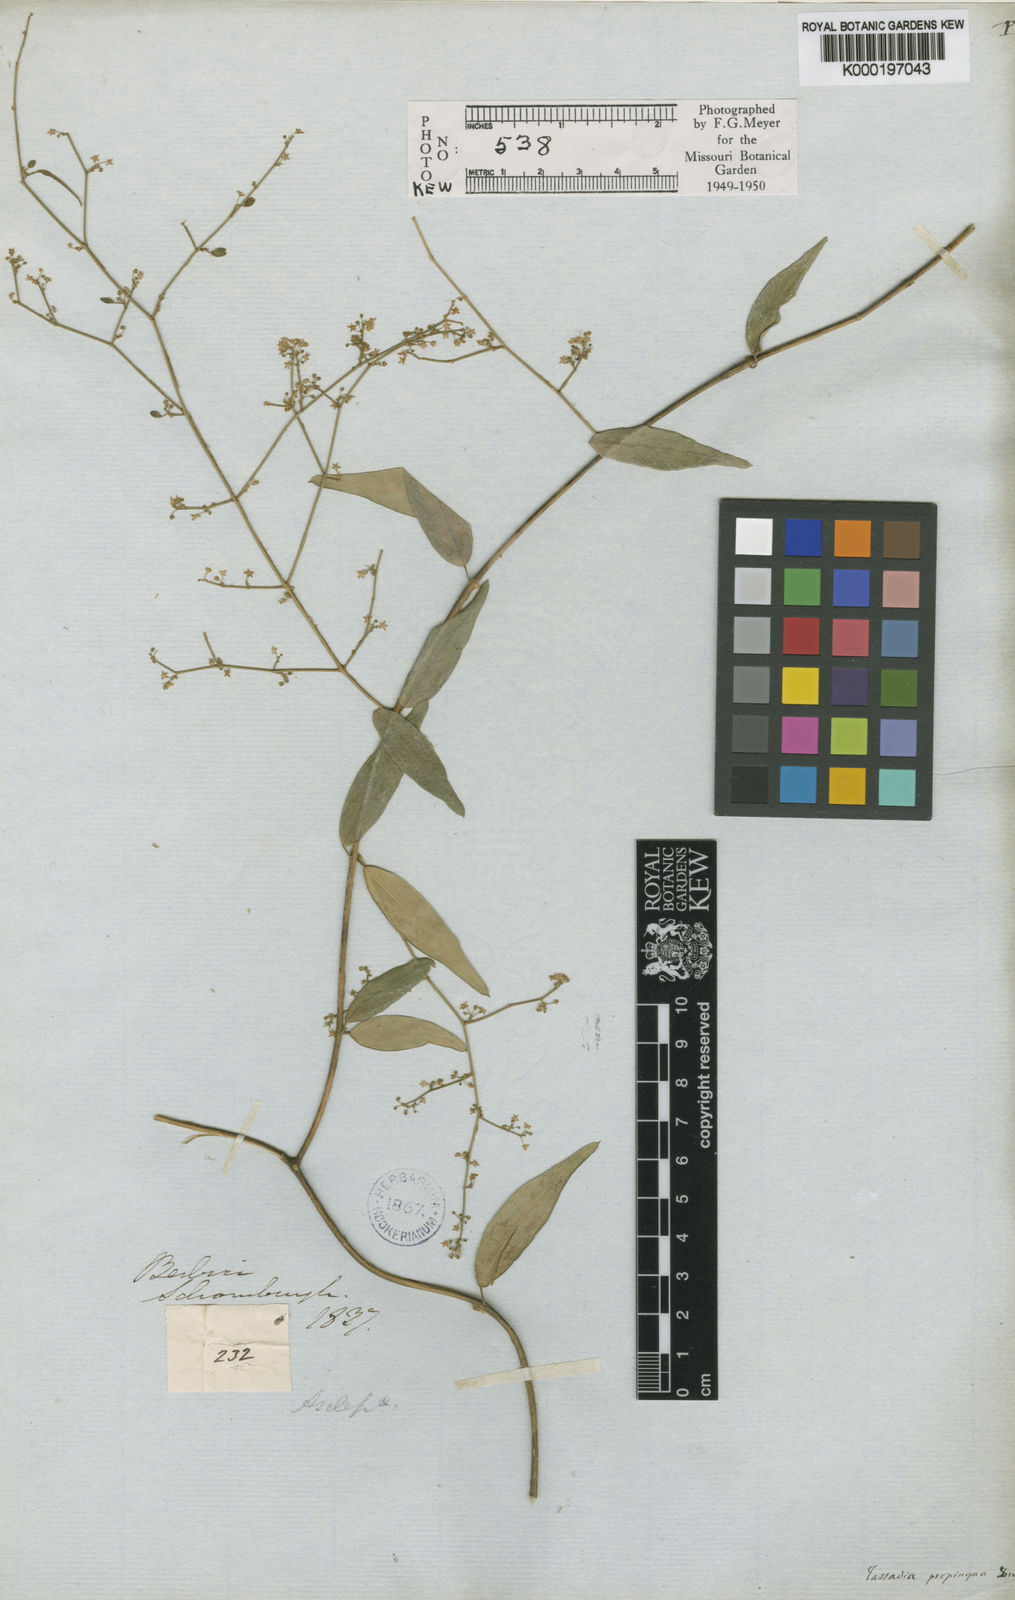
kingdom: Plantae
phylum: Tracheophyta
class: Magnoliopsida
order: Gentianales
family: Apocynaceae
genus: Tassadia
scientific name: Tassadia propinqua
